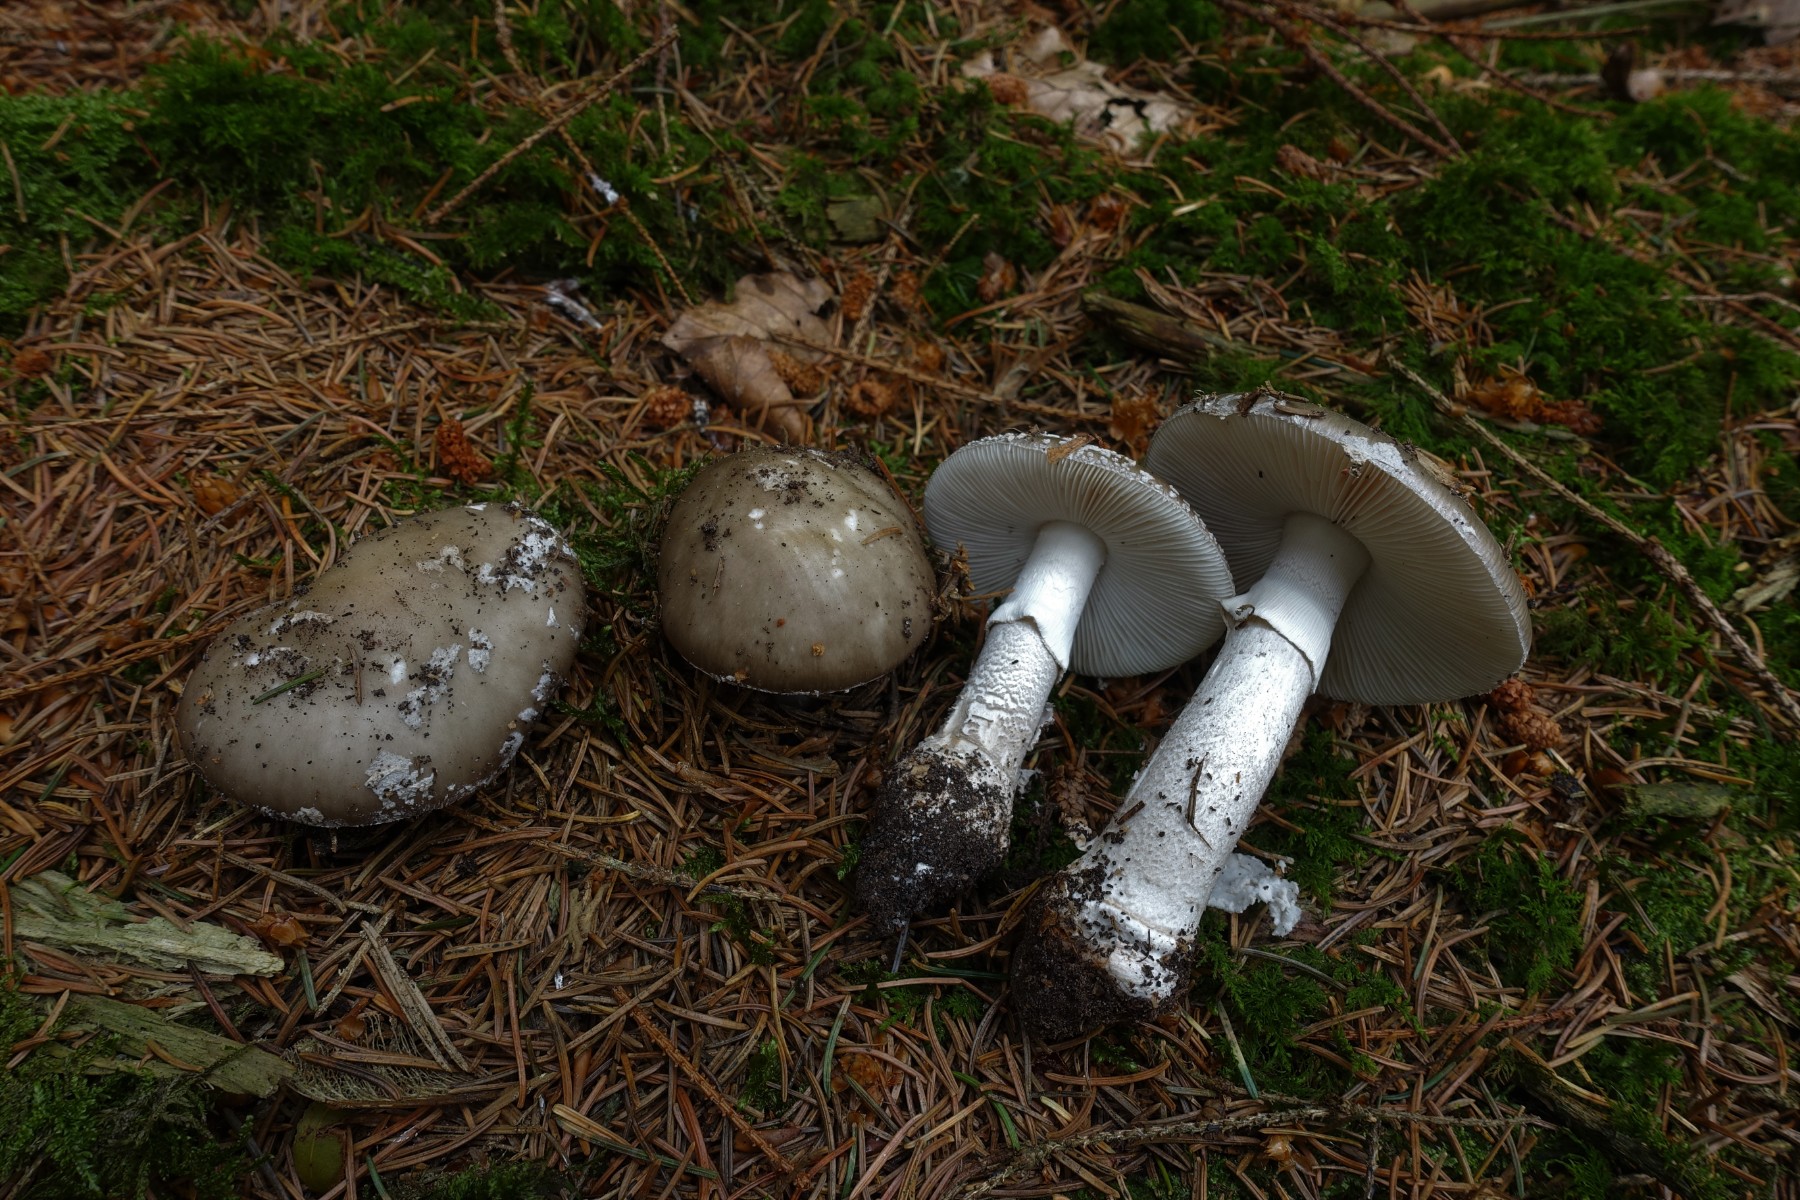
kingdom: Fungi
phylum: Basidiomycota
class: Agaricomycetes
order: Agaricales
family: Amanitaceae
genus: Amanita
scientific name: Amanita
